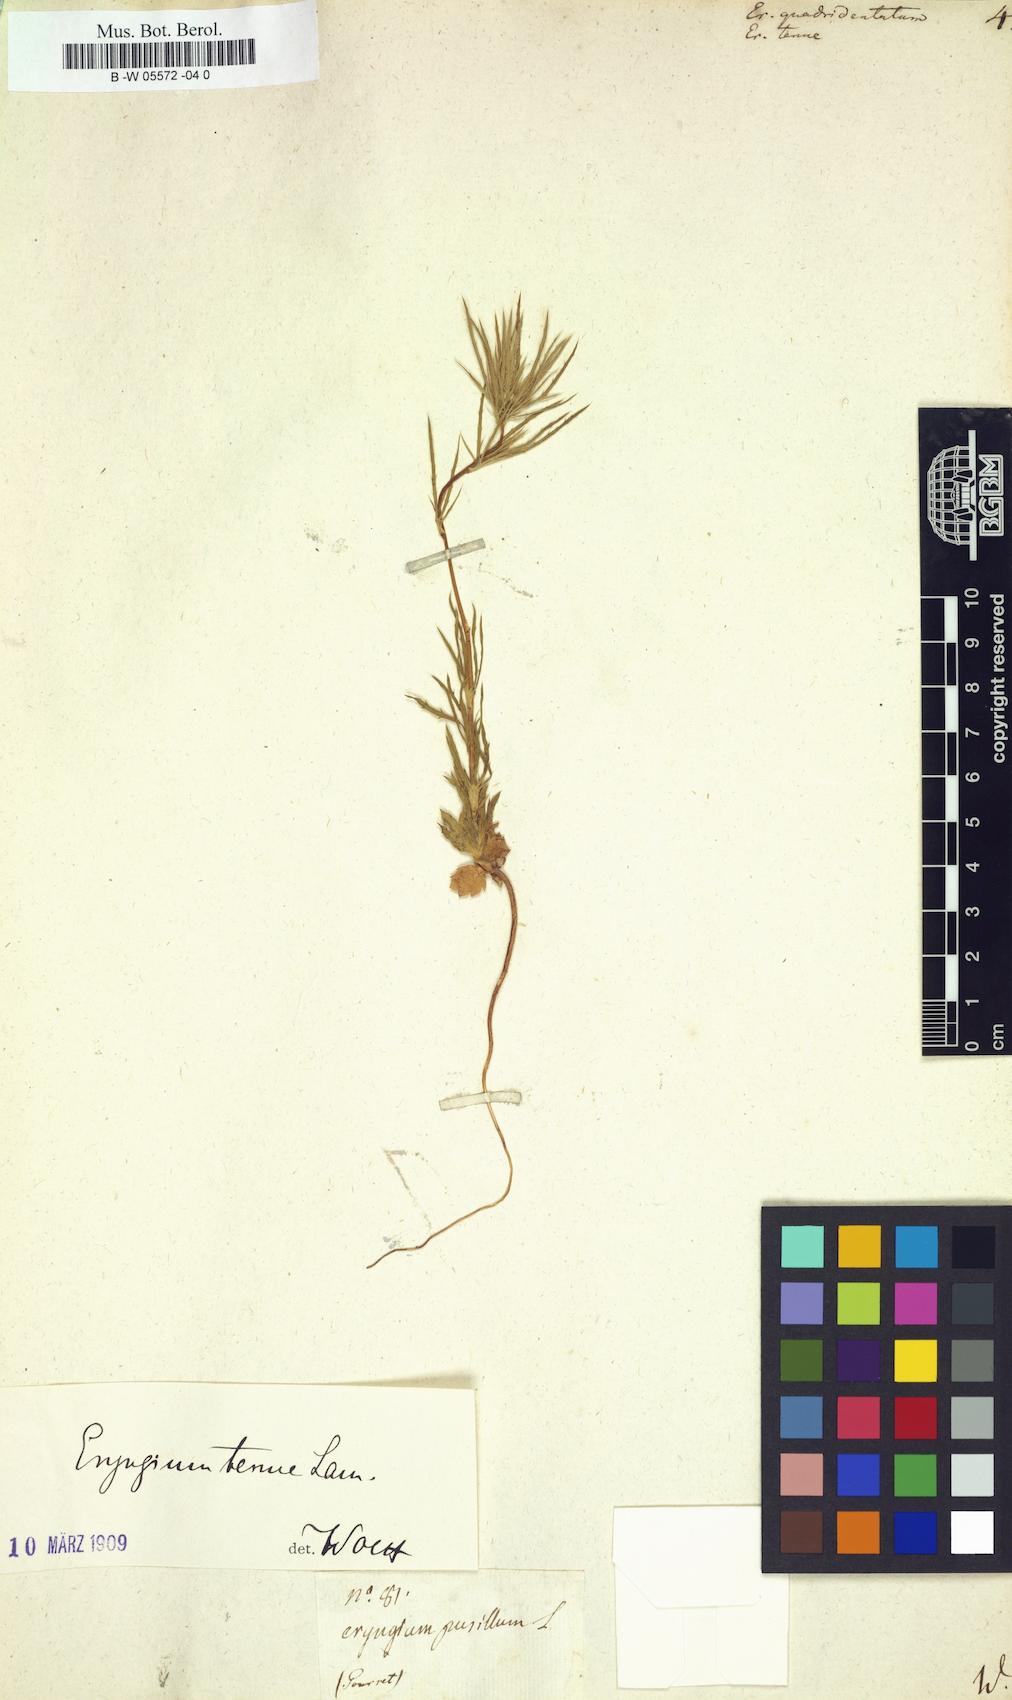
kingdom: Plantae
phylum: Tracheophyta
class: Magnoliopsida
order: Apiales
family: Apiaceae
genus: Eryngium
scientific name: Eryngium
